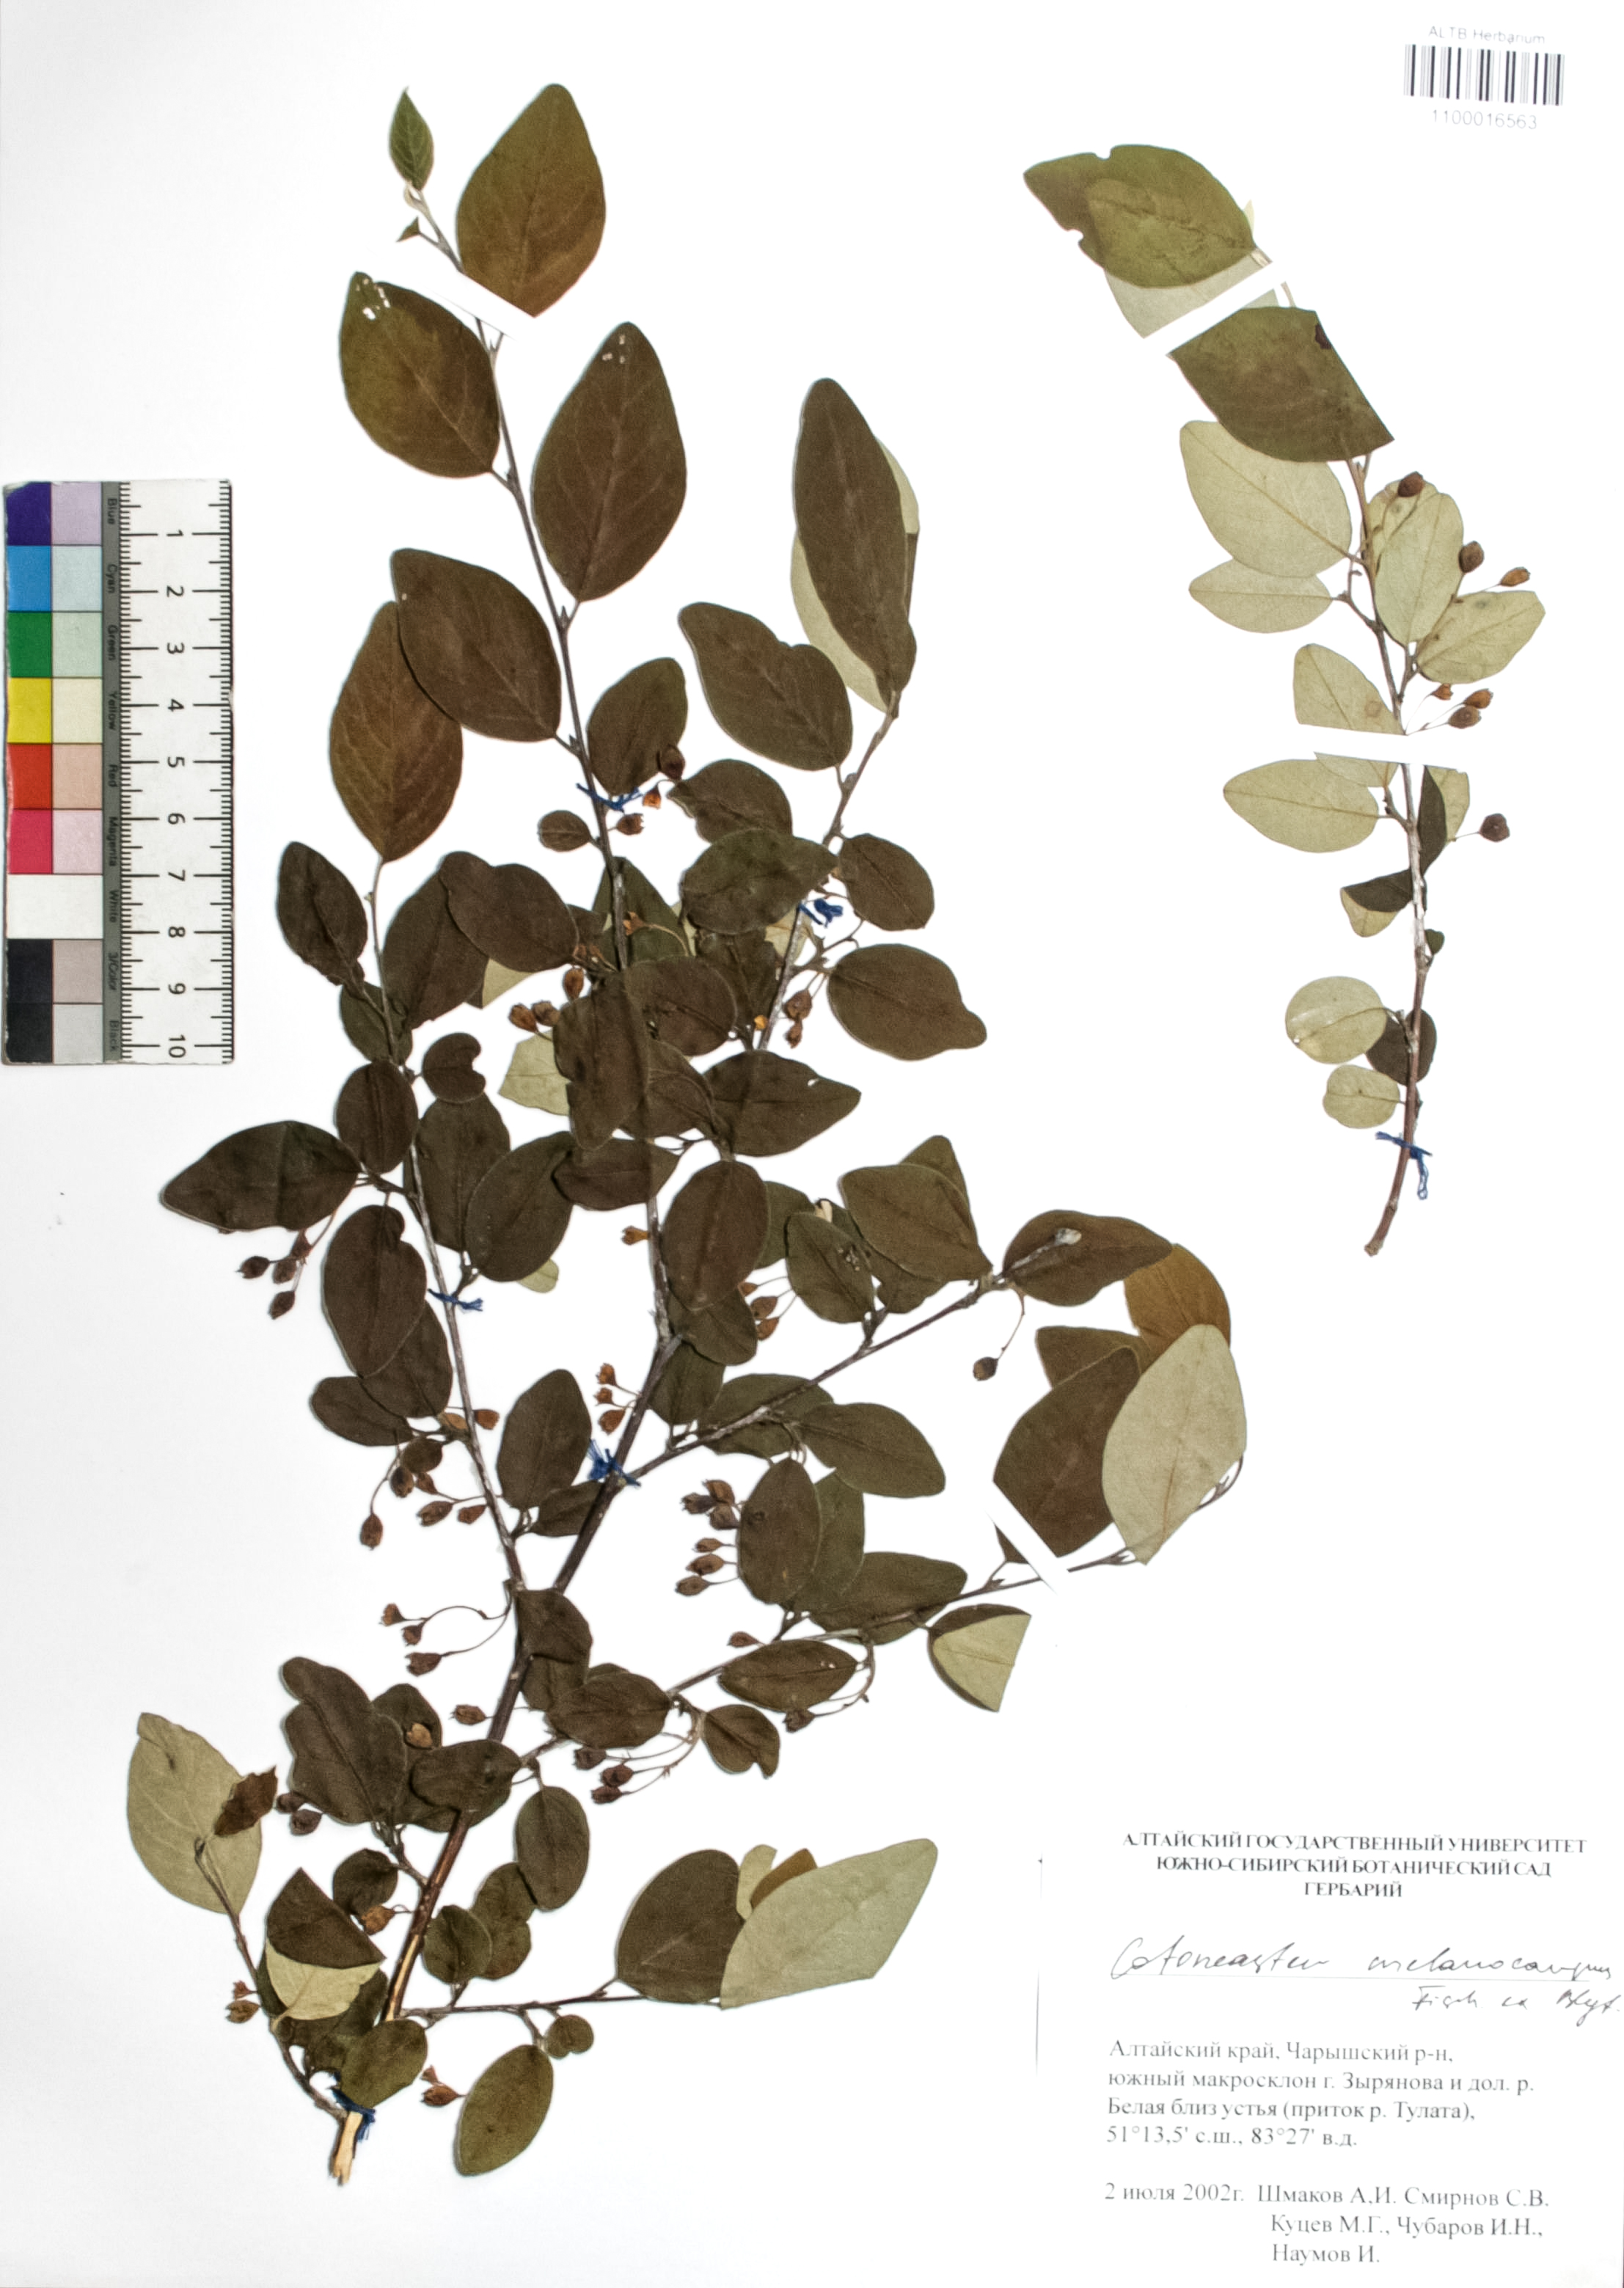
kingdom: Plantae
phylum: Tracheophyta
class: Magnoliopsida
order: Rosales
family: Rosaceae
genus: Cotoneaster
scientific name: Cotoneaster niger
